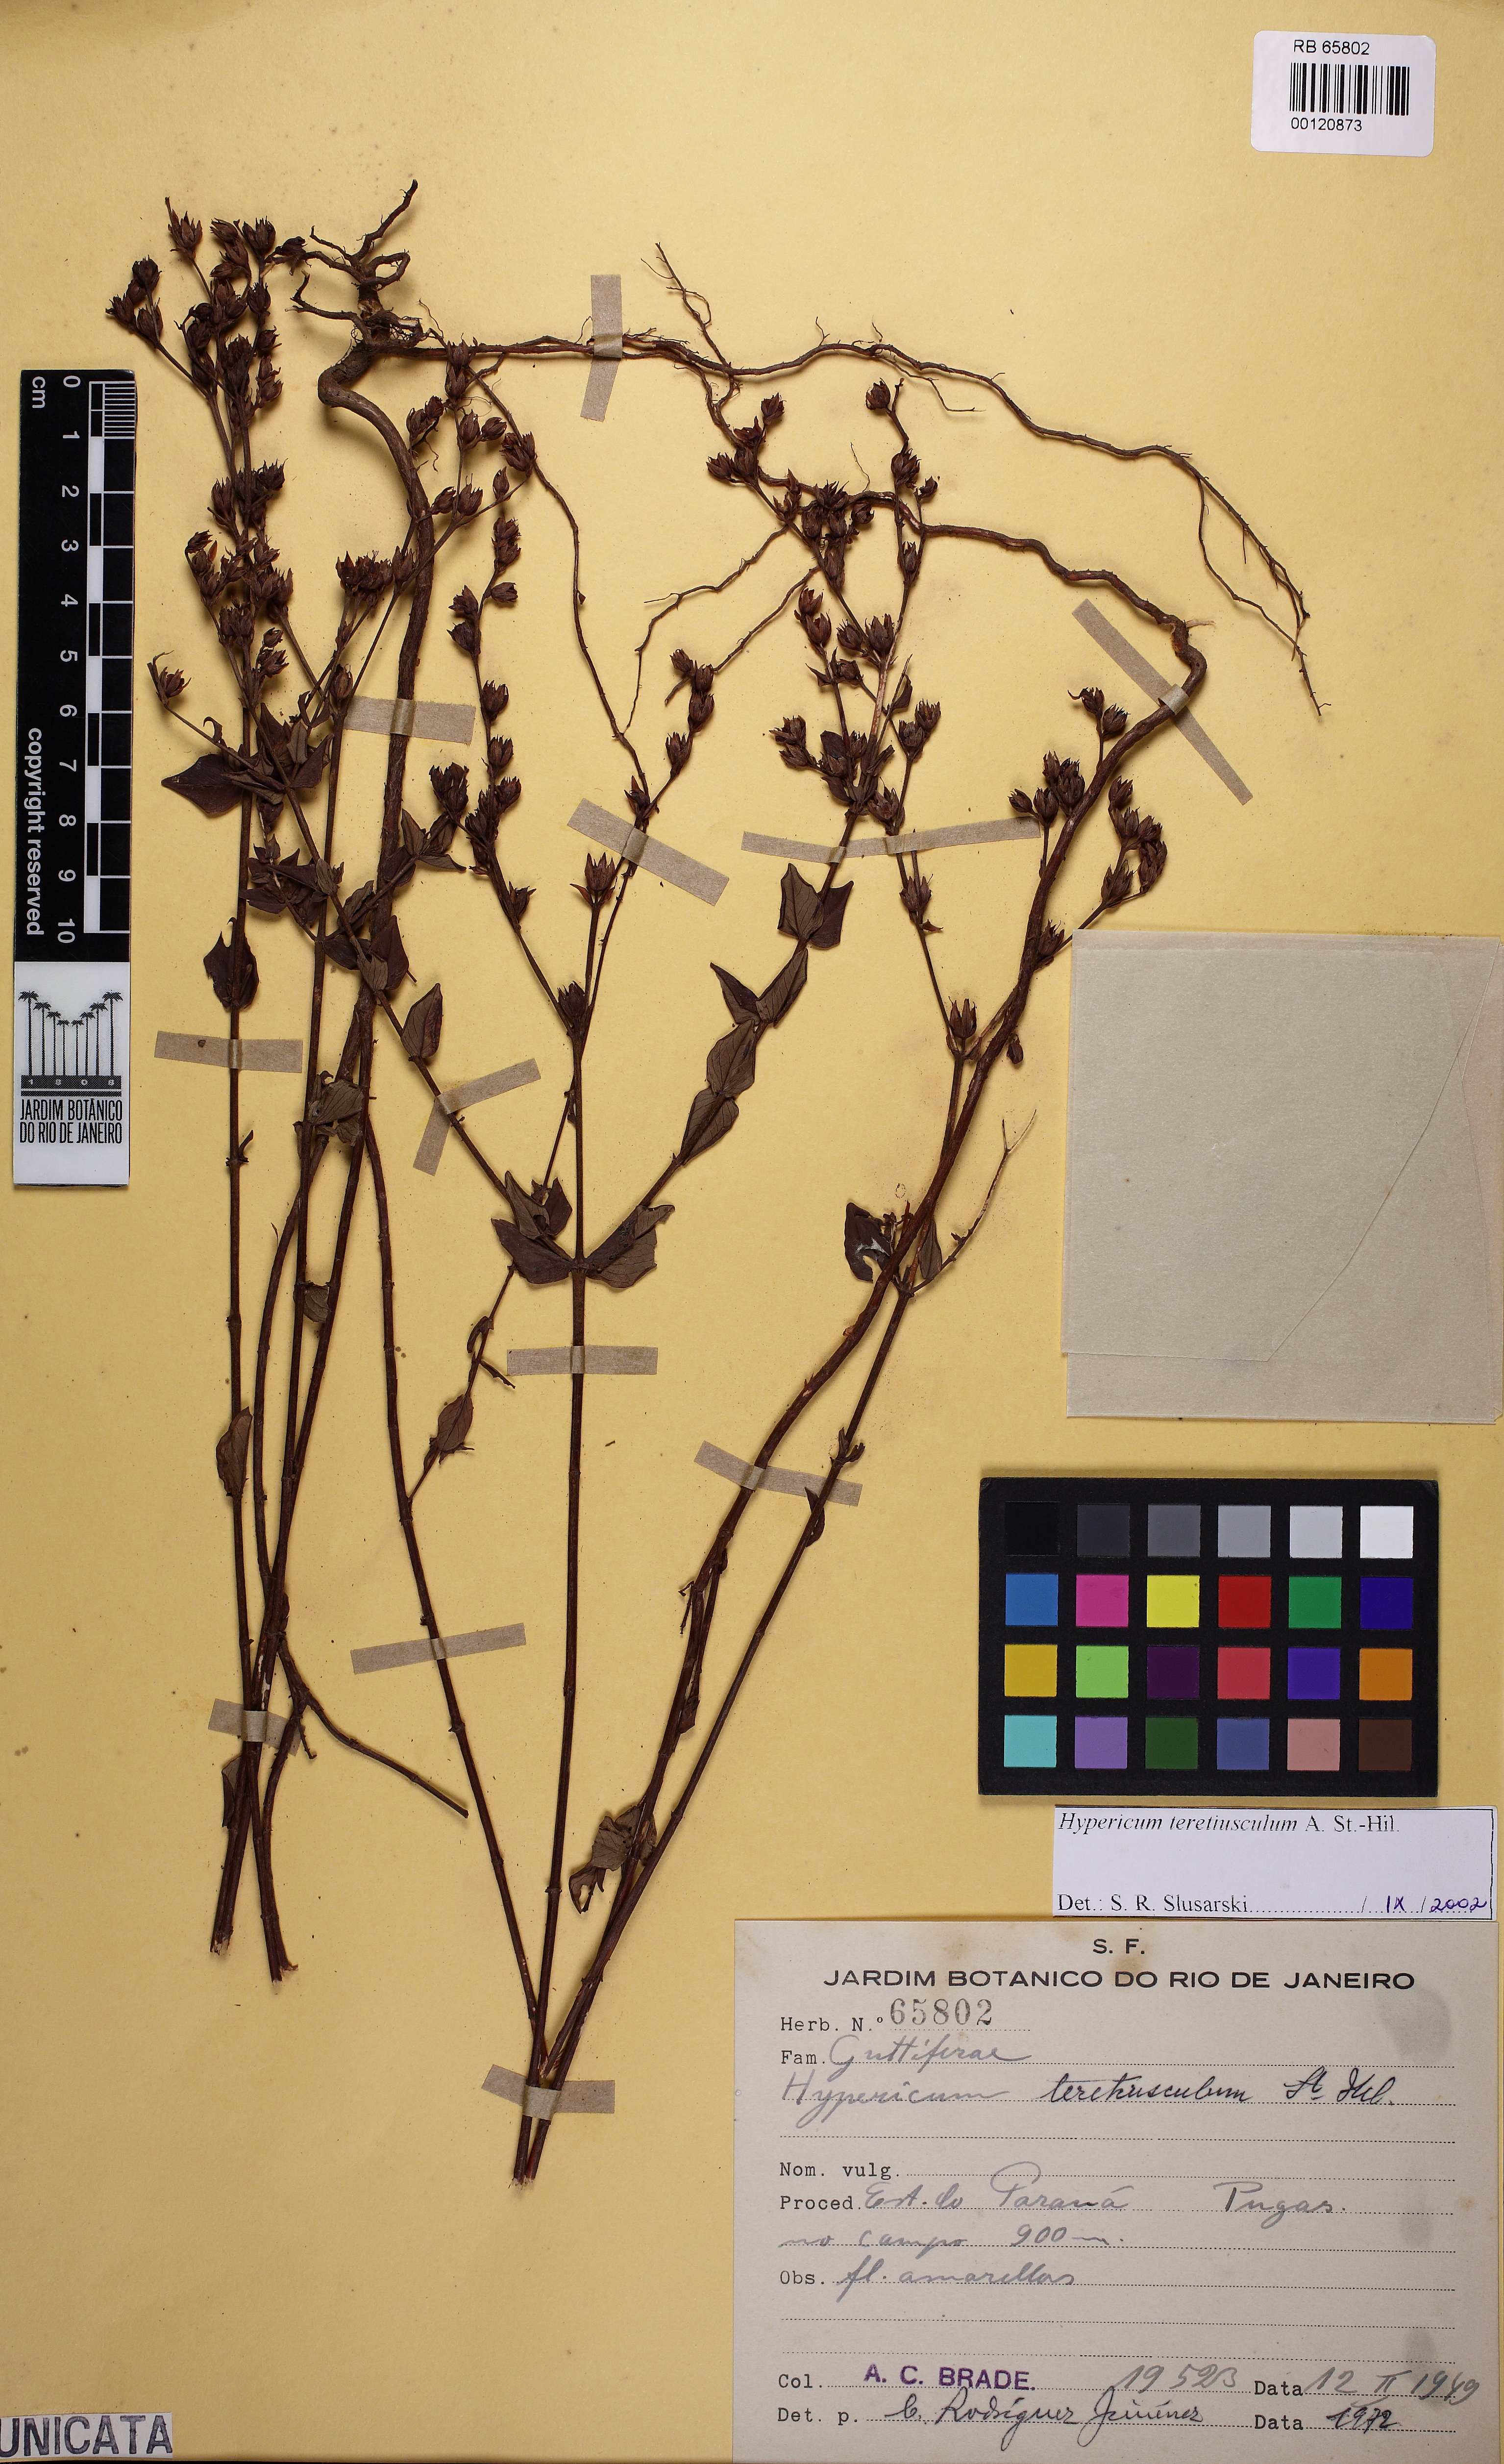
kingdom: Plantae
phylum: Tracheophyta
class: Magnoliopsida
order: Malpighiales
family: Hypericaceae
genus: Hypericum
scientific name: Hypericum teretiusculum
